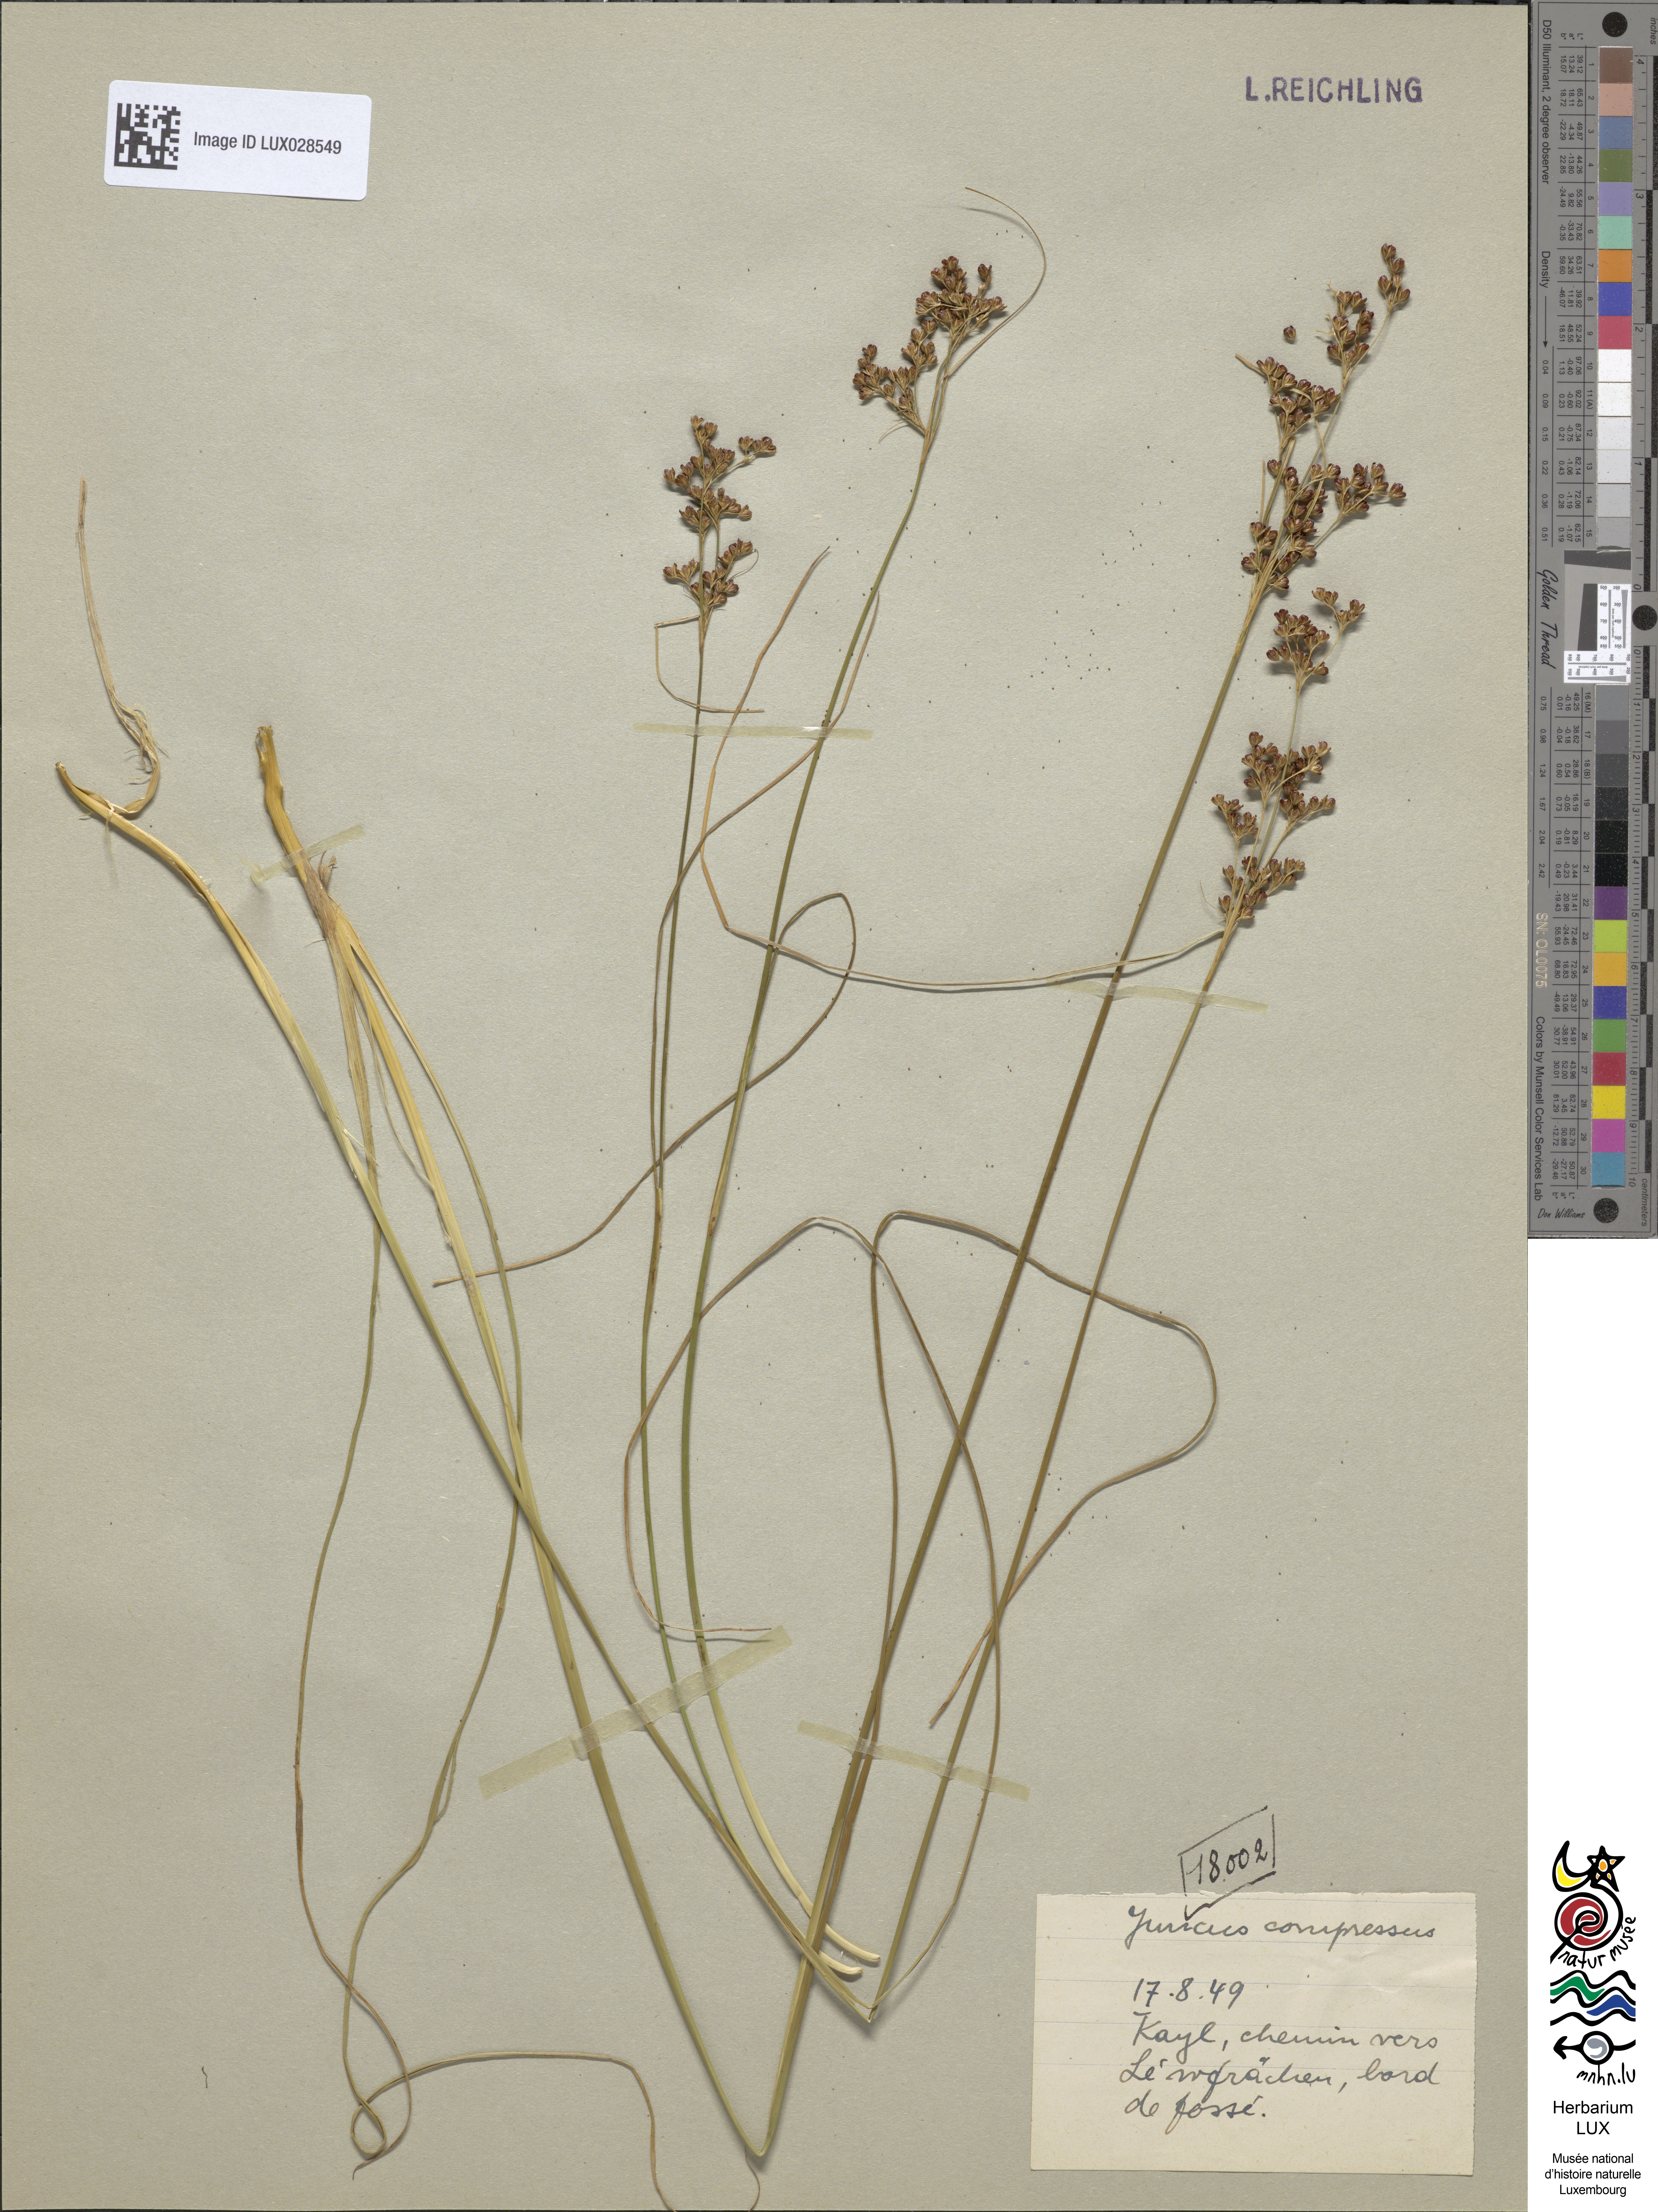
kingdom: Plantae
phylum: Tracheophyta
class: Liliopsida
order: Poales
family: Juncaceae
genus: Juncus
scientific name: Juncus compressus
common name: Round-fruited rush
